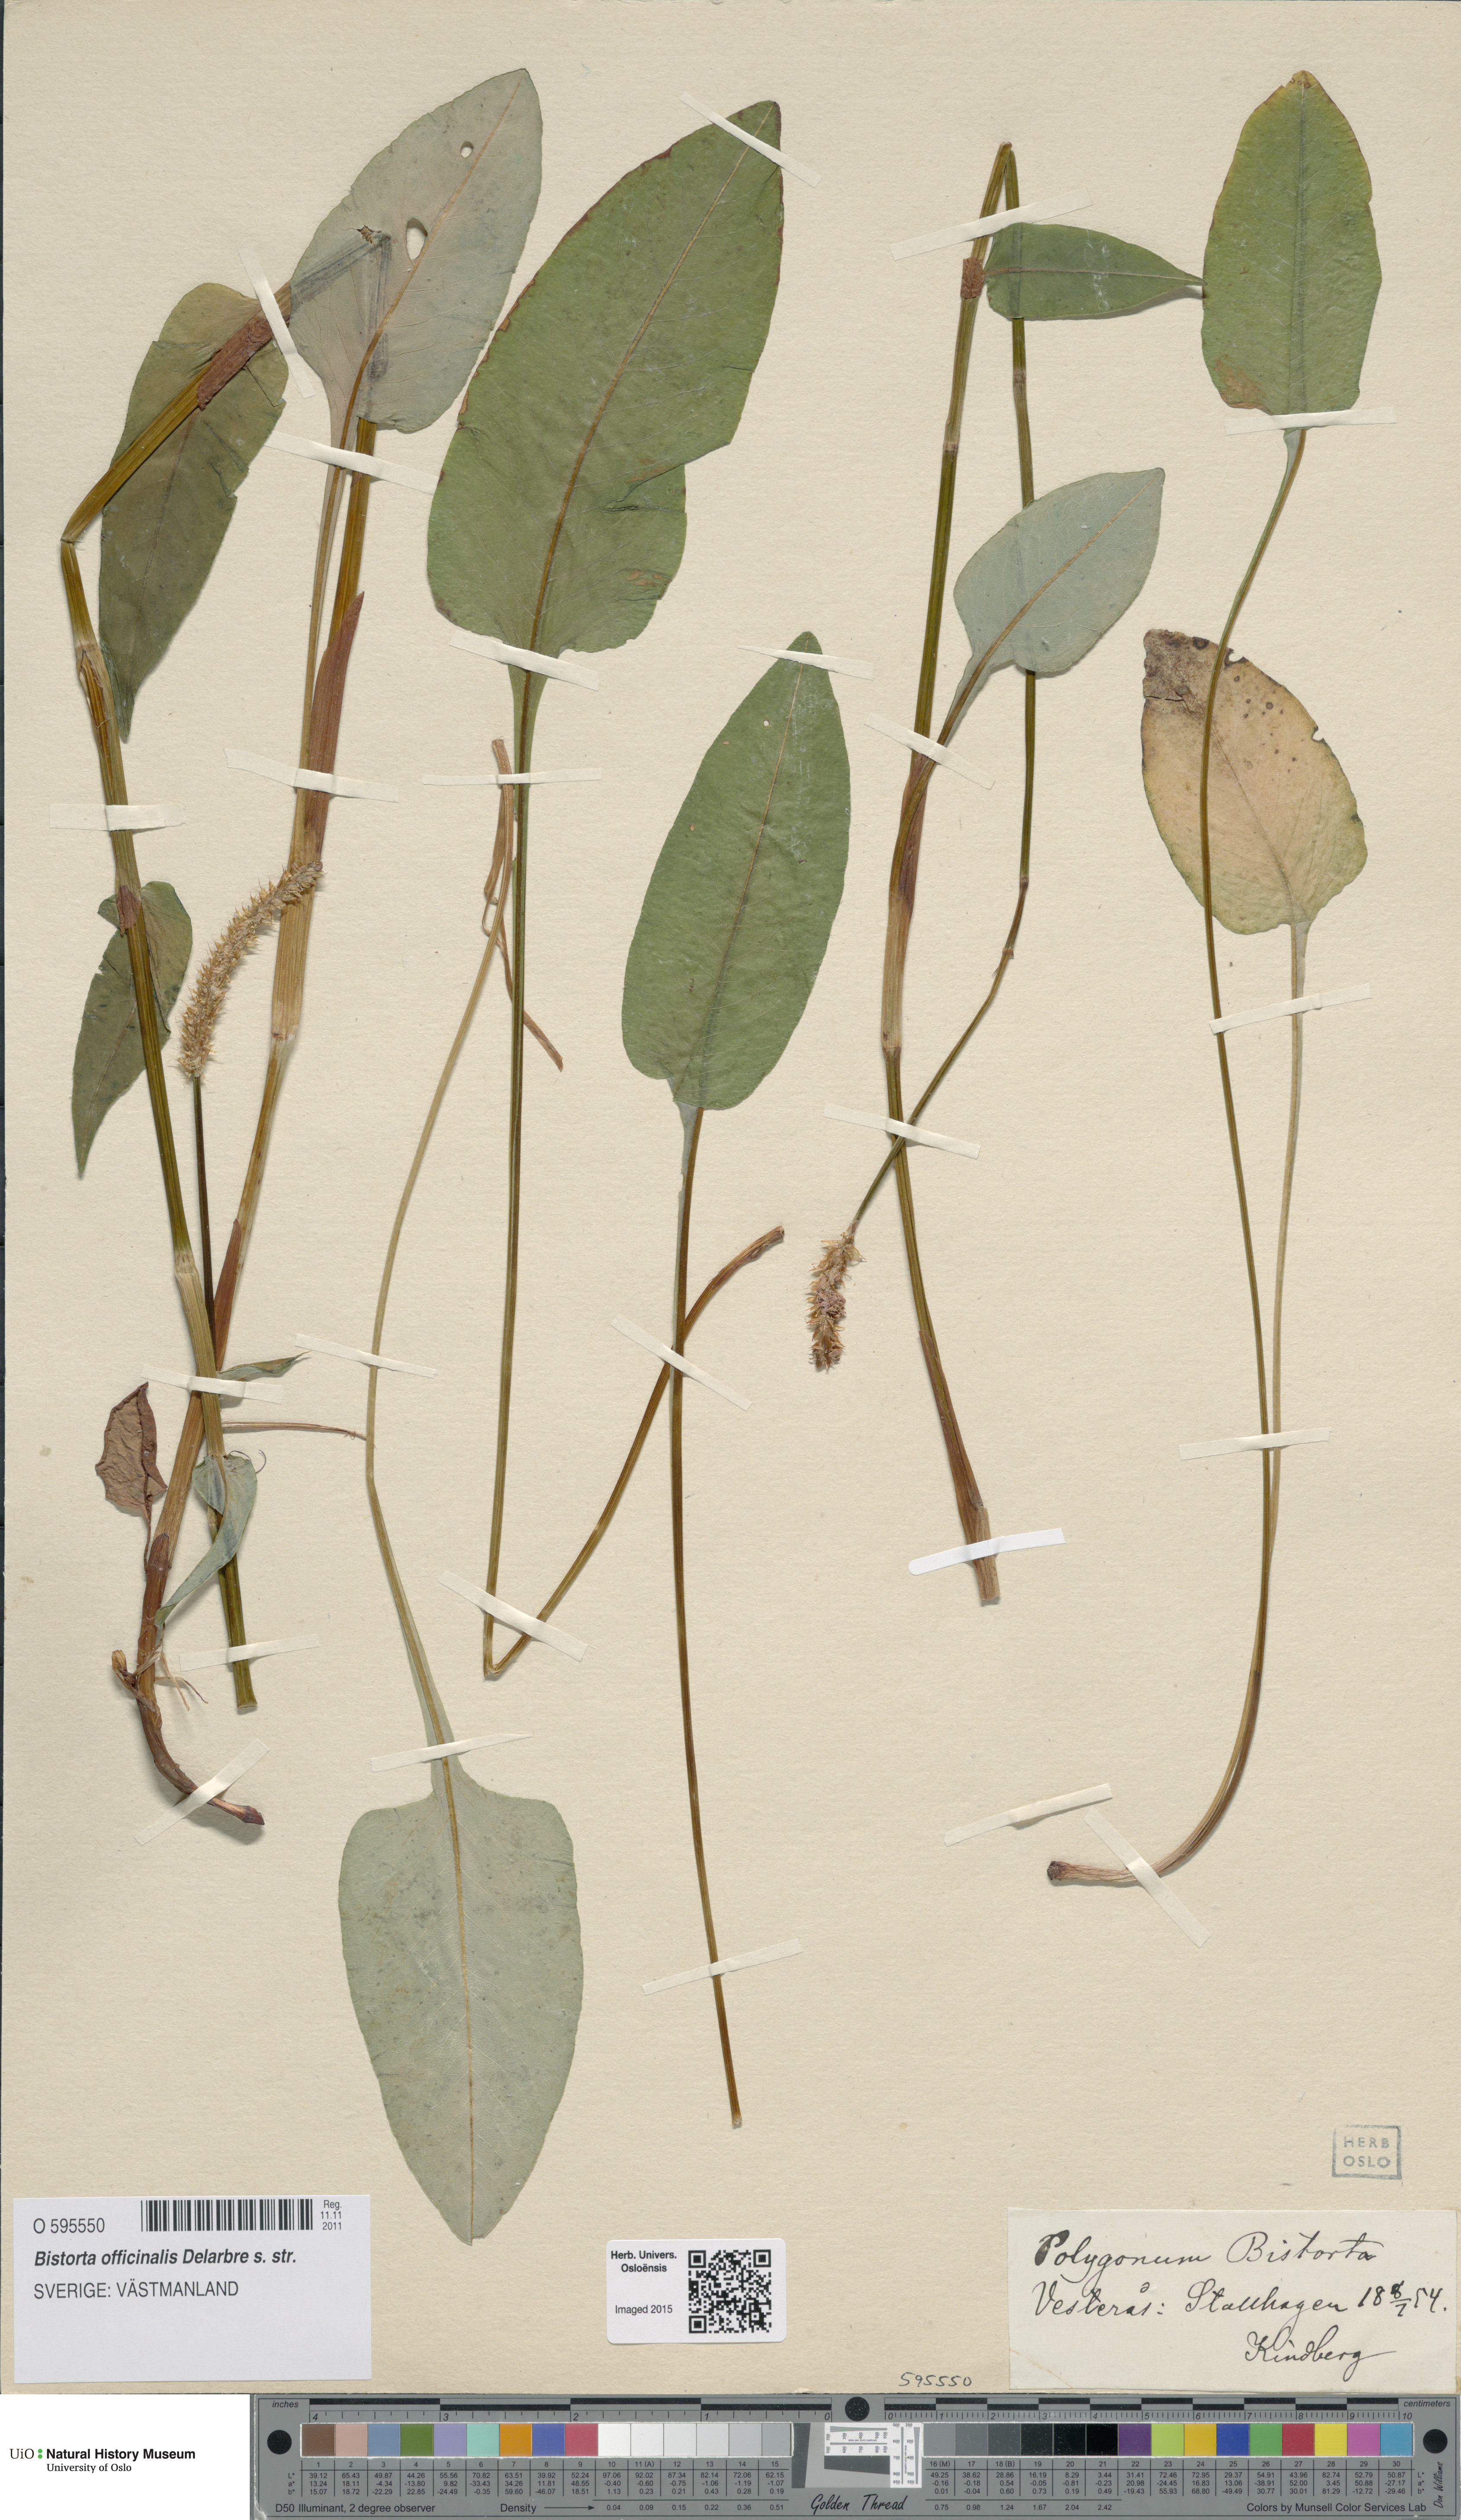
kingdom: Plantae
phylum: Tracheophyta
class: Magnoliopsida
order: Caryophyllales
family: Polygonaceae
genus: Bistorta
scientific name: Bistorta officinalis
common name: Common bistort
